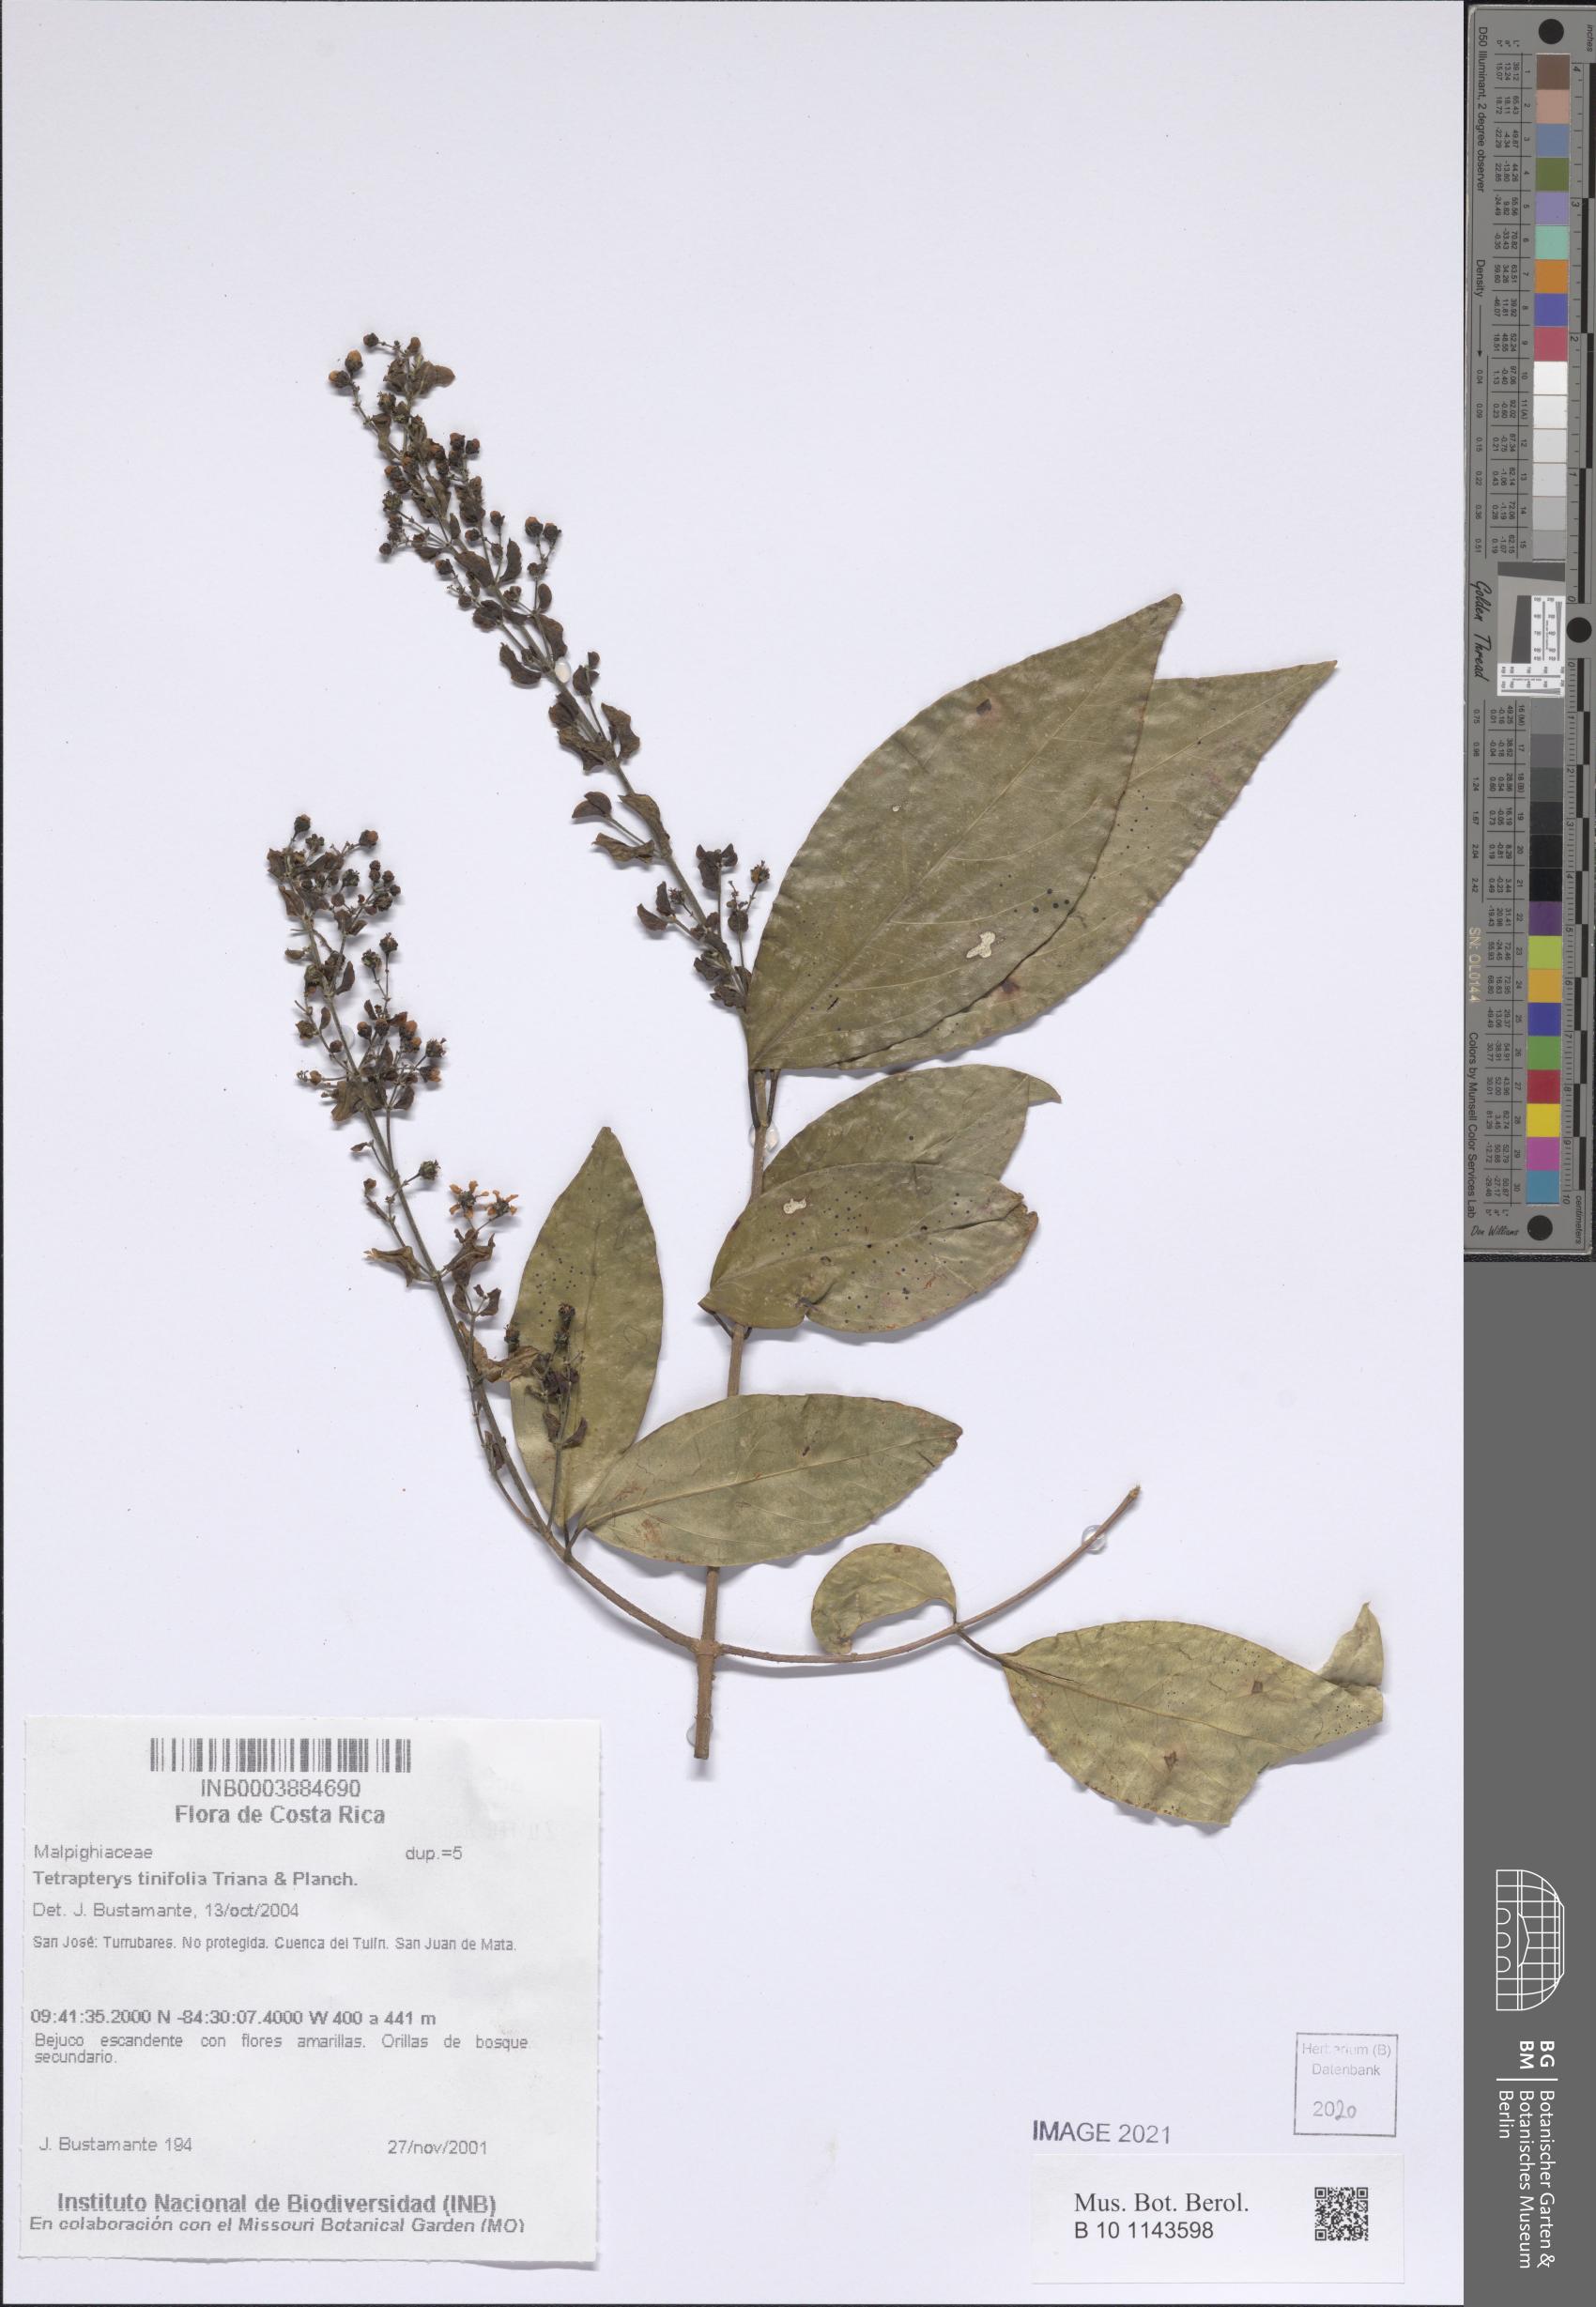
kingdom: Plantae
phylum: Tracheophyta
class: Magnoliopsida
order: Malpighiales
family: Malpighiaceae
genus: Tetrapterys
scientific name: Tetrapterys tinifolia
